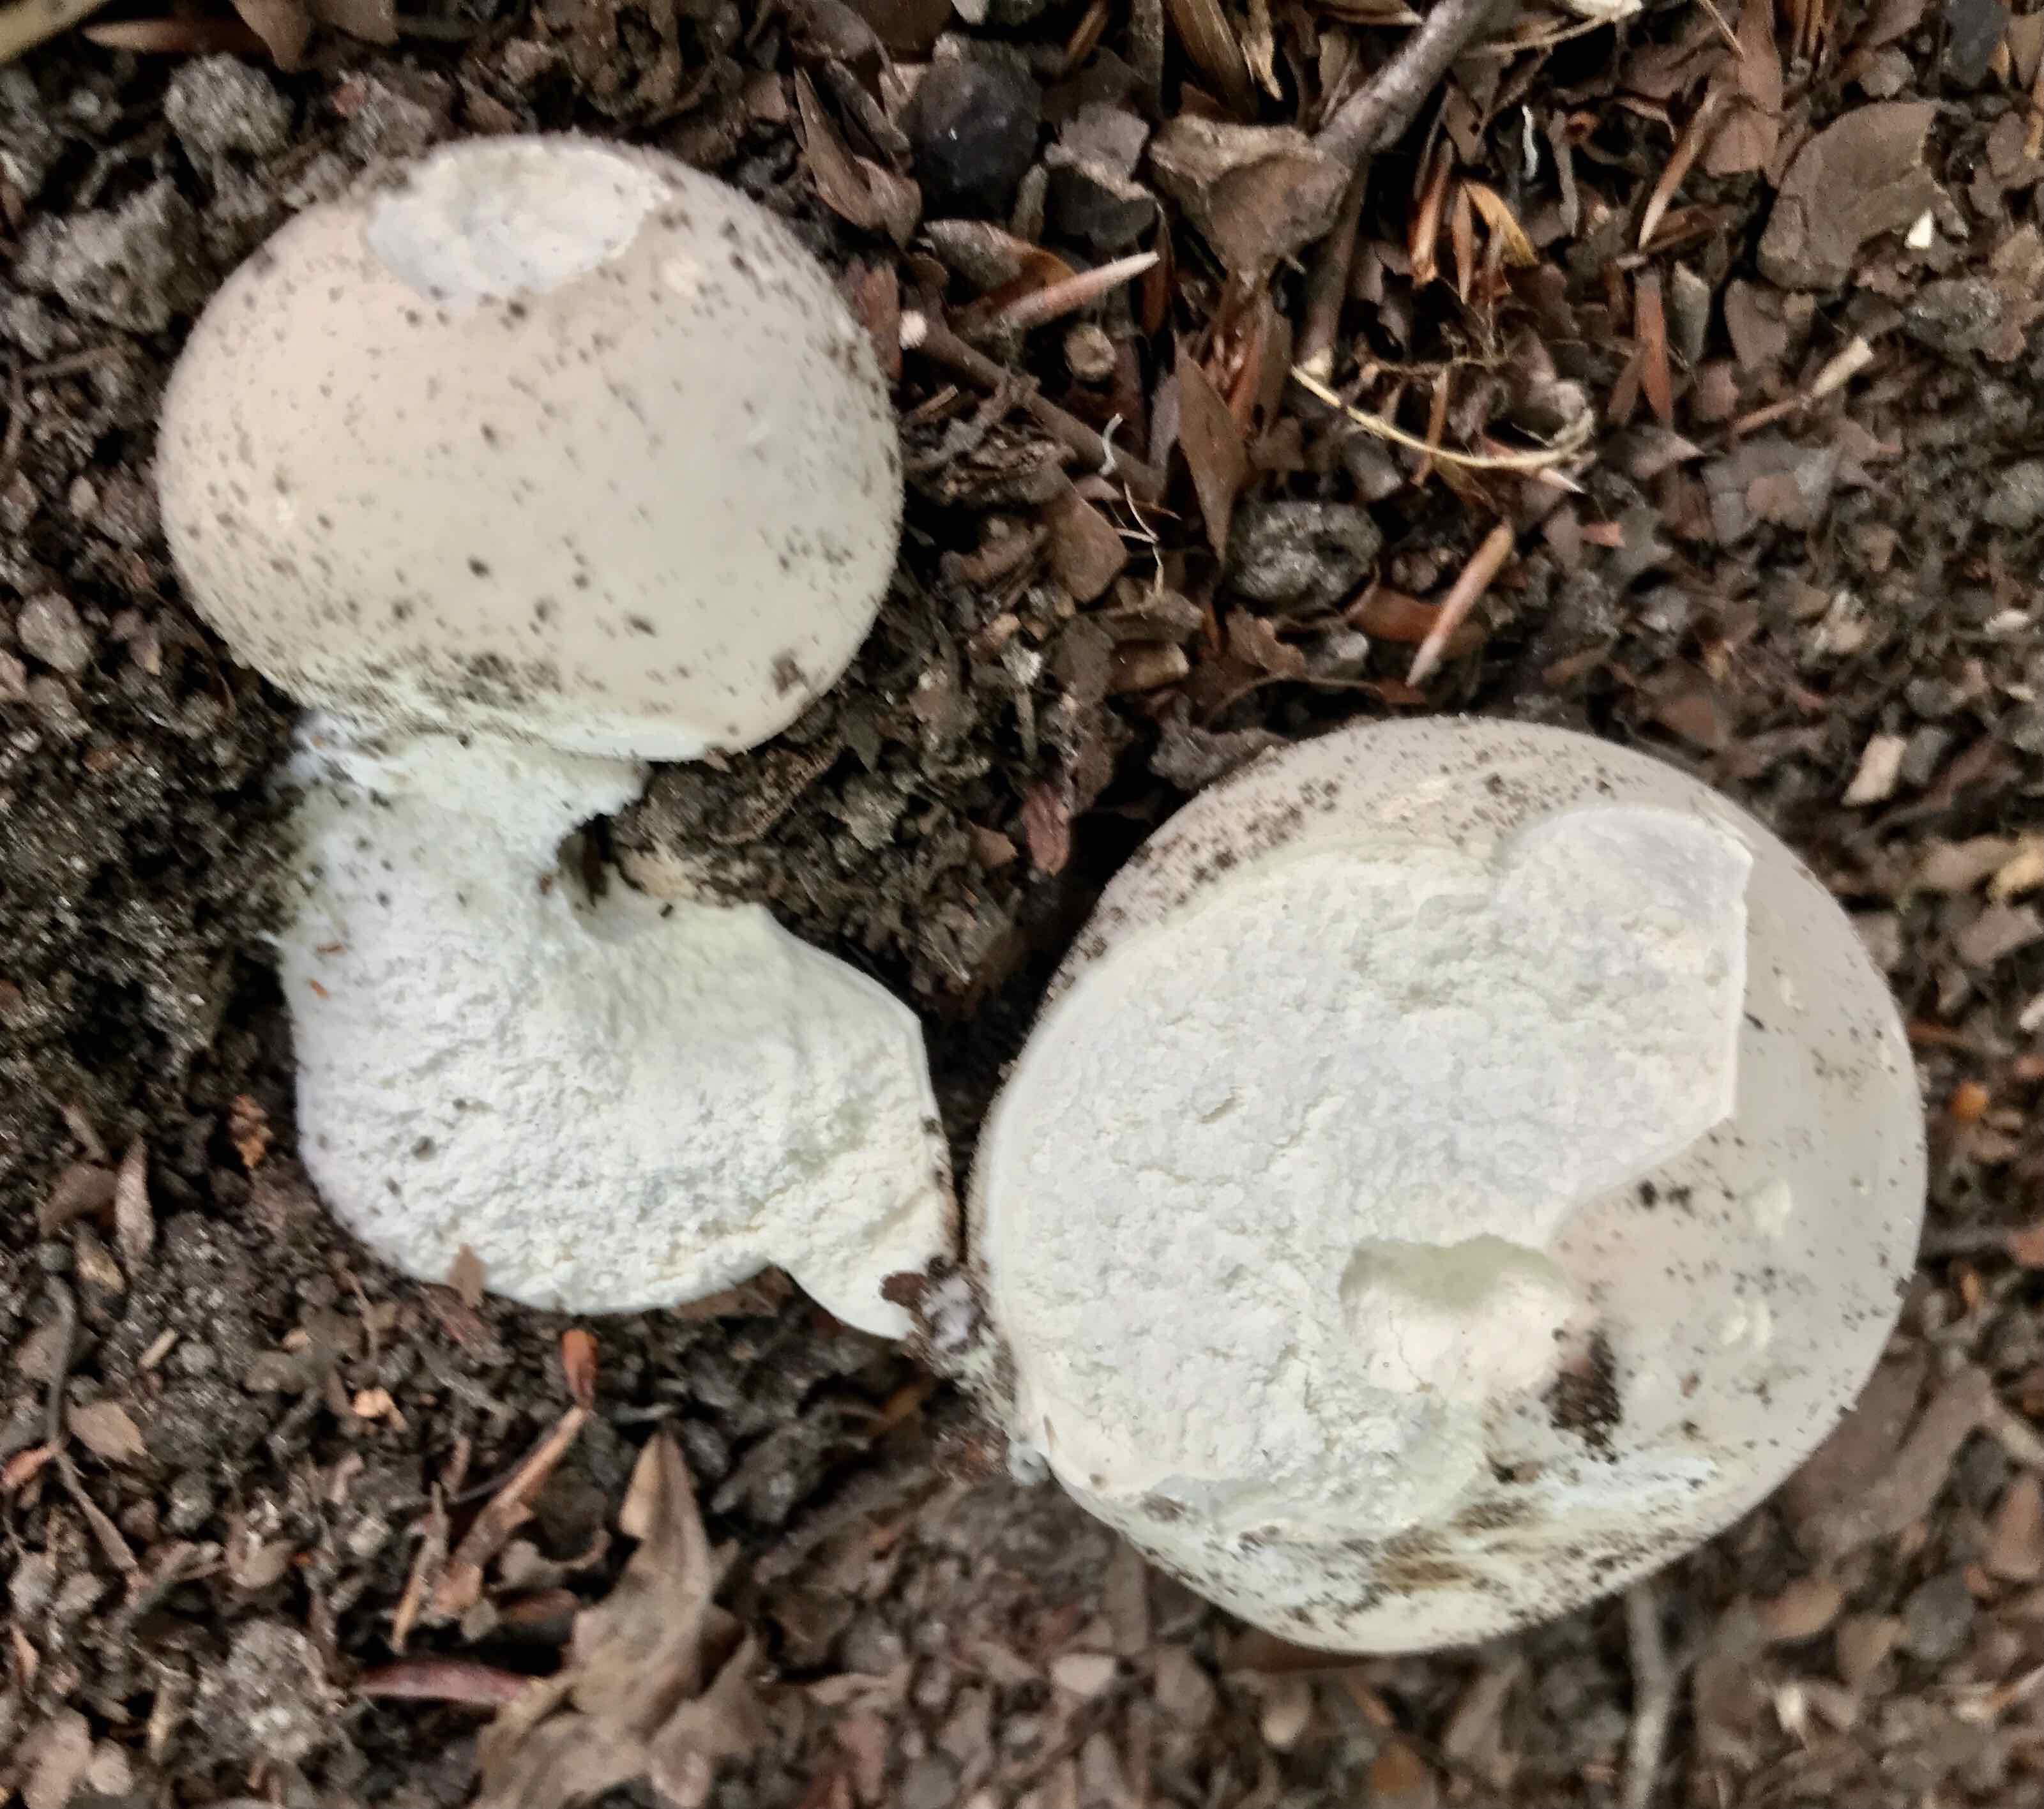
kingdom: Fungi
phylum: Basidiomycota
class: Agaricomycetes
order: Agaricales
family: Lycoperdaceae
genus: Calvatia
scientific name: Calvatia gigantea
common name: kæmpestøvbold
